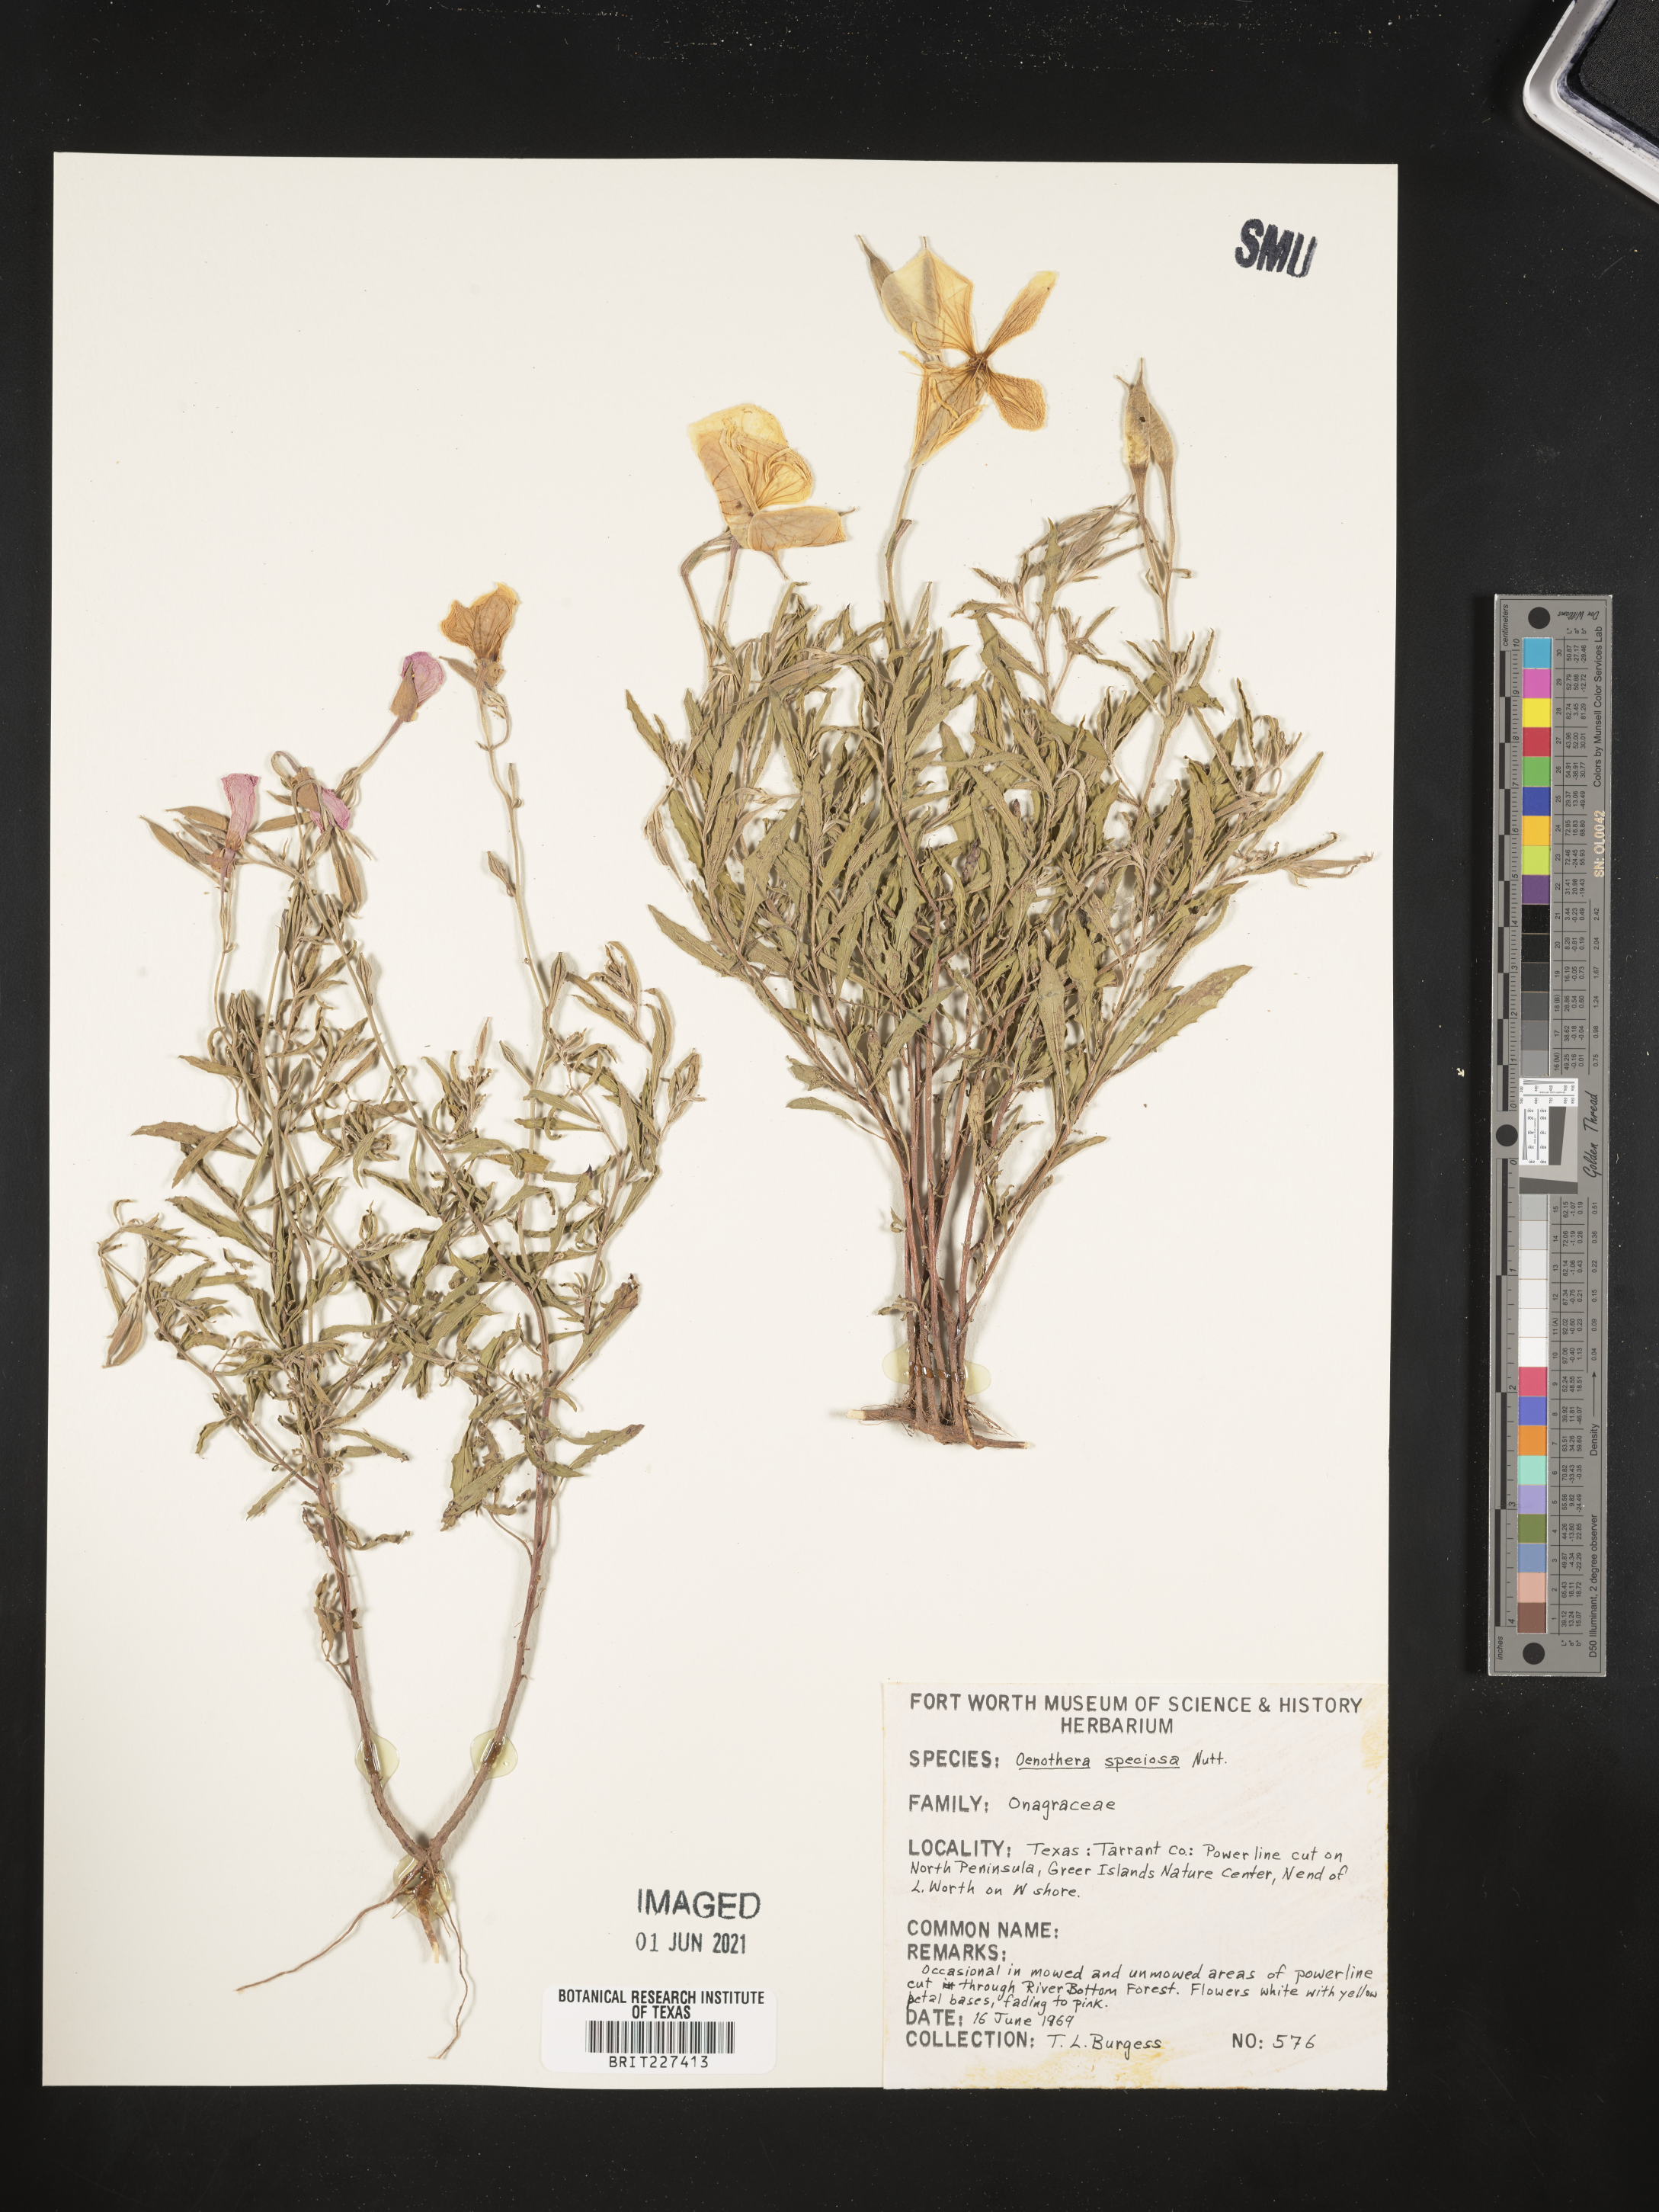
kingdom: Plantae
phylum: Tracheophyta
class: Magnoliopsida
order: Myrtales
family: Onagraceae
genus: Oenothera
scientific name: Oenothera speciosa
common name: White evening-primrose
